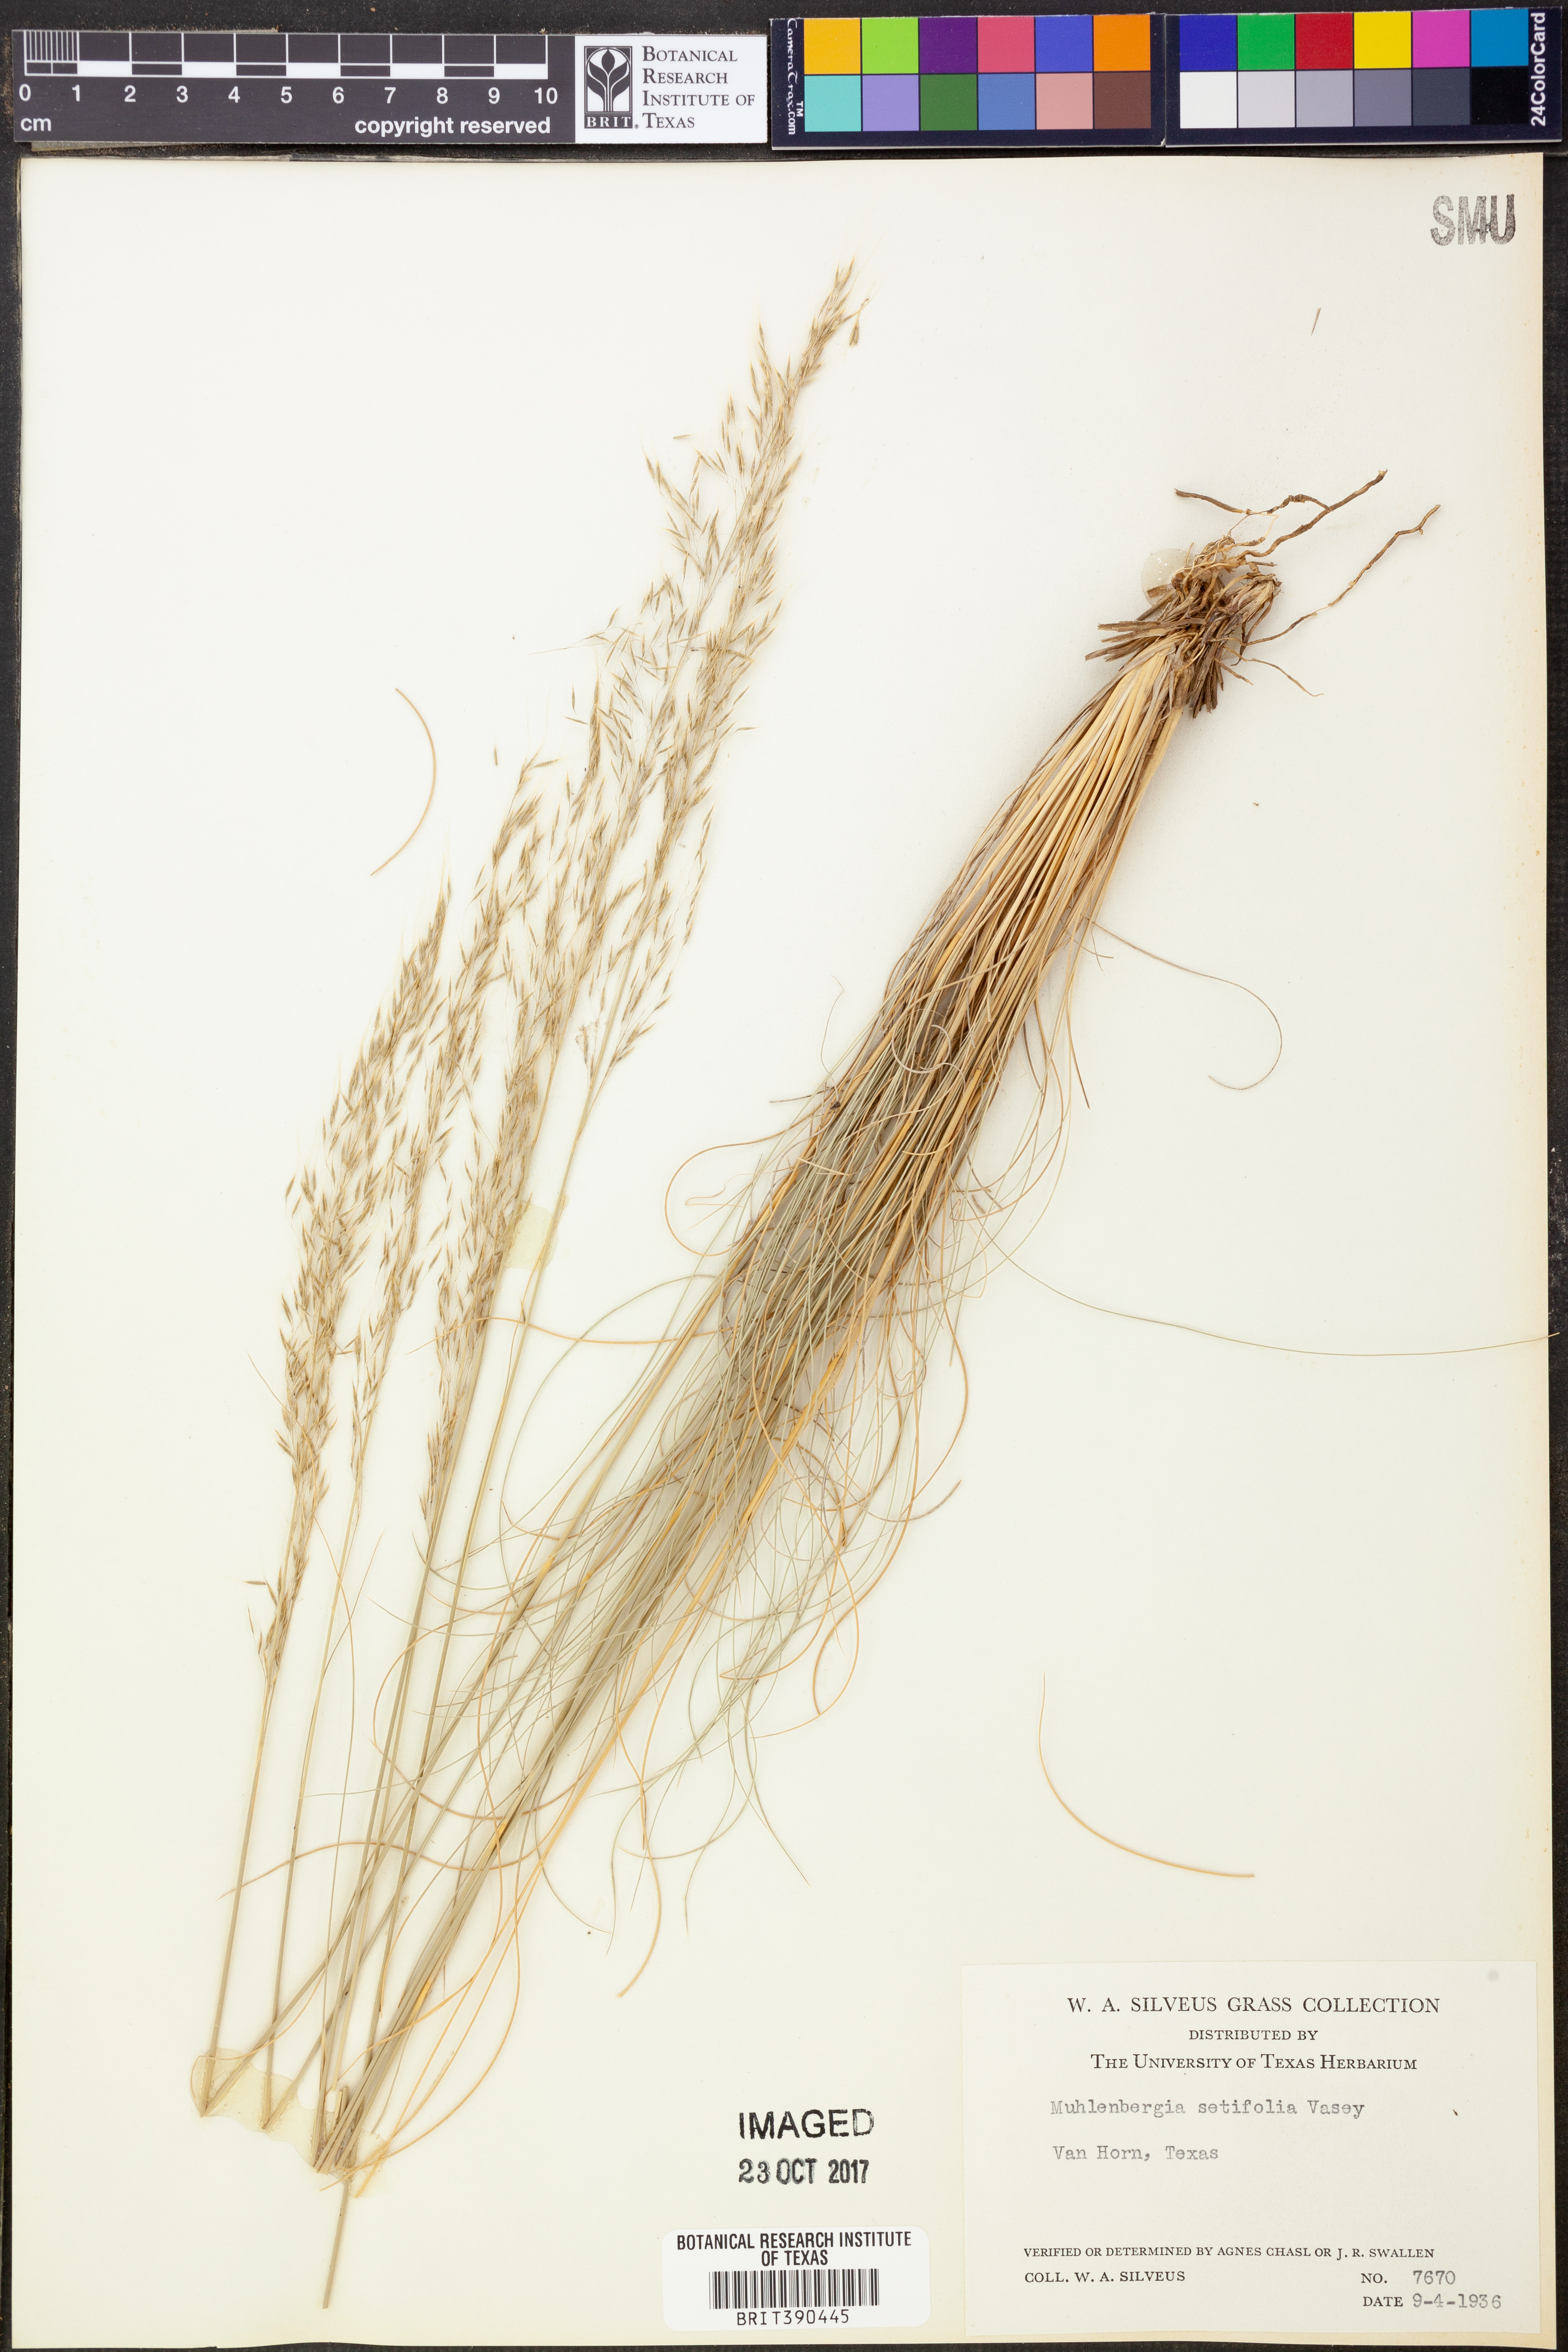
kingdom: Plantae
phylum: Tracheophyta
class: Liliopsida
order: Poales
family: Poaceae
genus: Muhlenbergia
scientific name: Muhlenbergia setifolia
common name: Curly-leaf muhly
